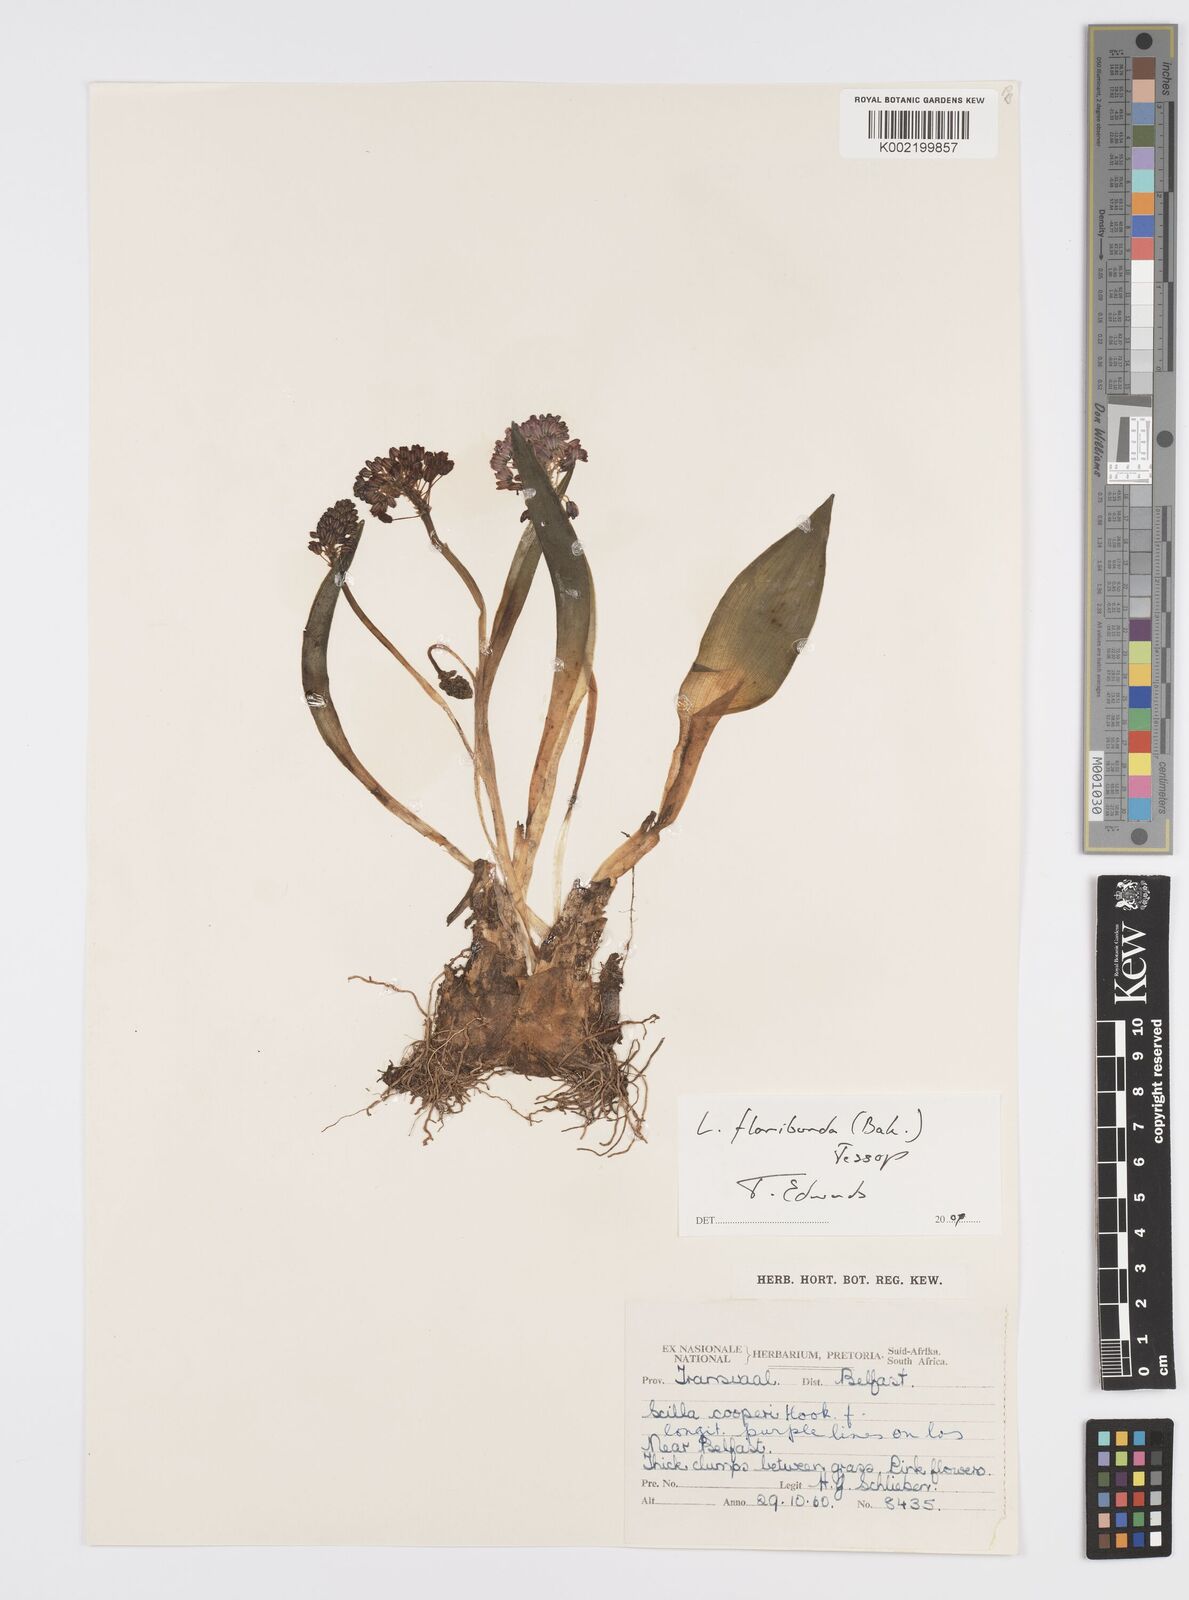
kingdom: Plantae
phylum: Tracheophyta
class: Liliopsida
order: Asparagales
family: Asparagaceae
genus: Ledebouria
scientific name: Ledebouria floribunda
